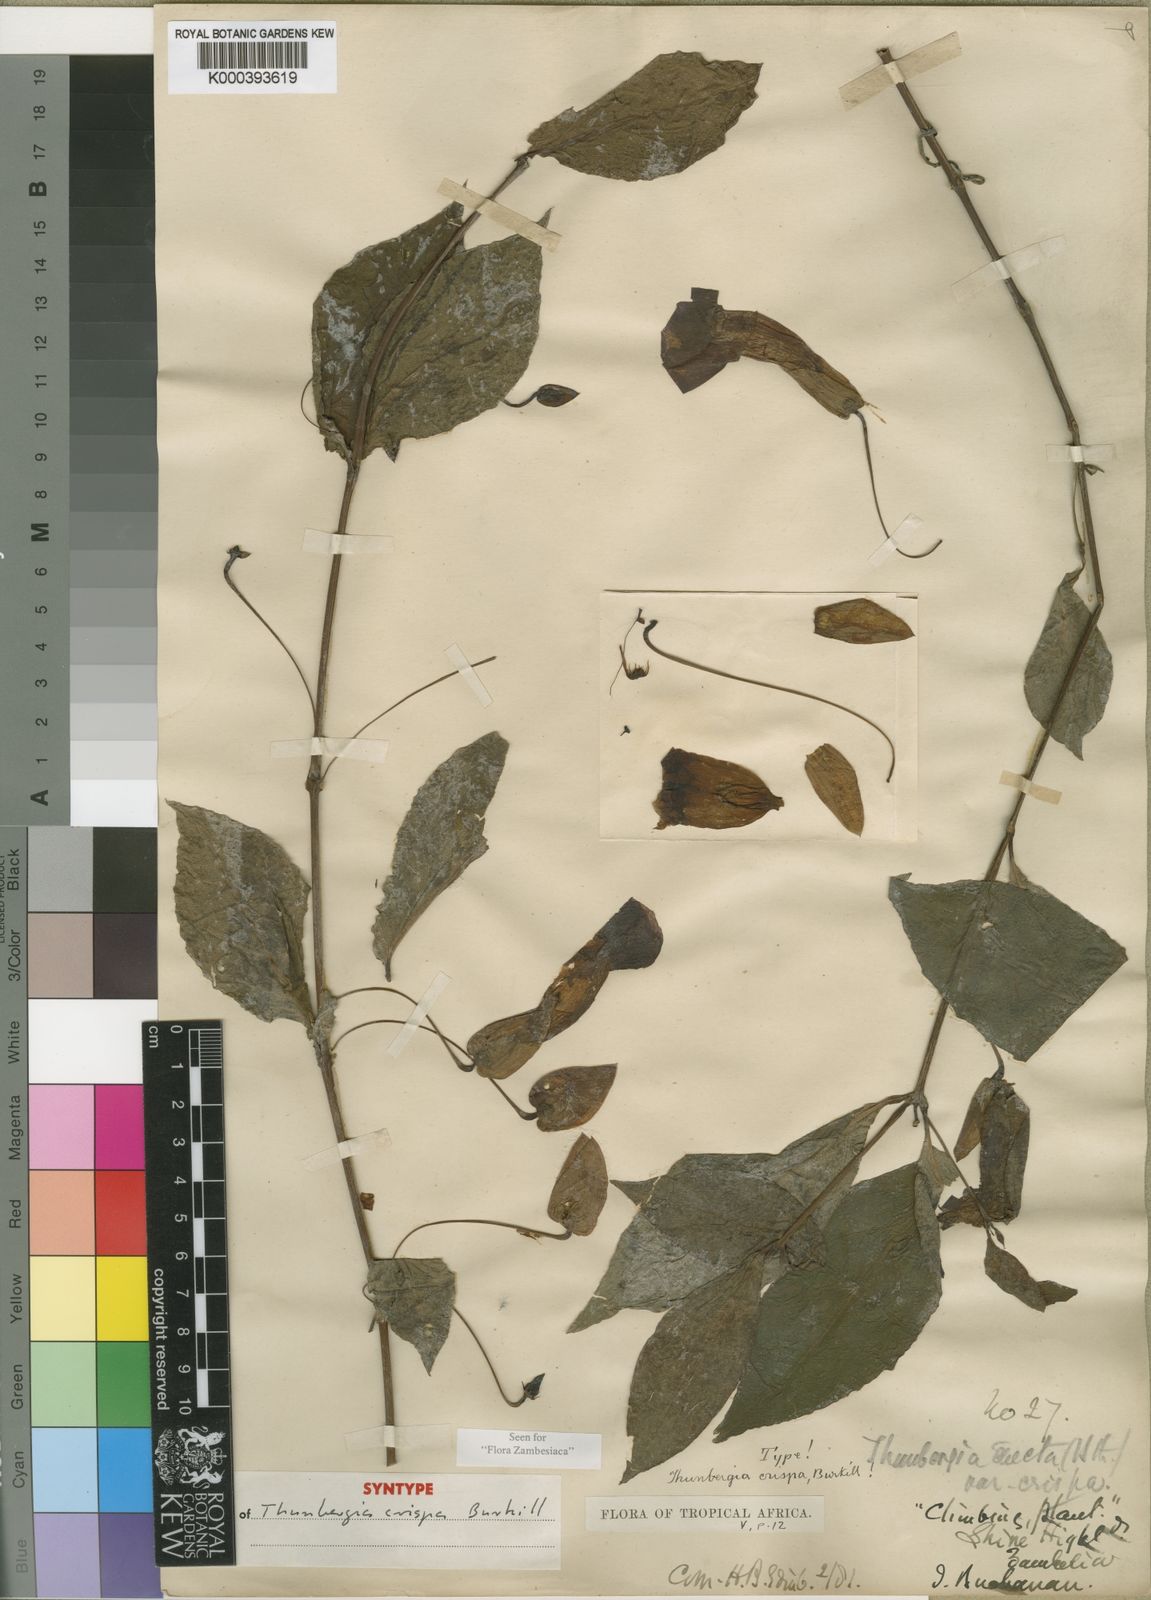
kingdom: Plantae
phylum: Tracheophyta
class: Magnoliopsida
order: Lamiales
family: Acanthaceae
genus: Thunbergia
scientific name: Thunbergia crispa
